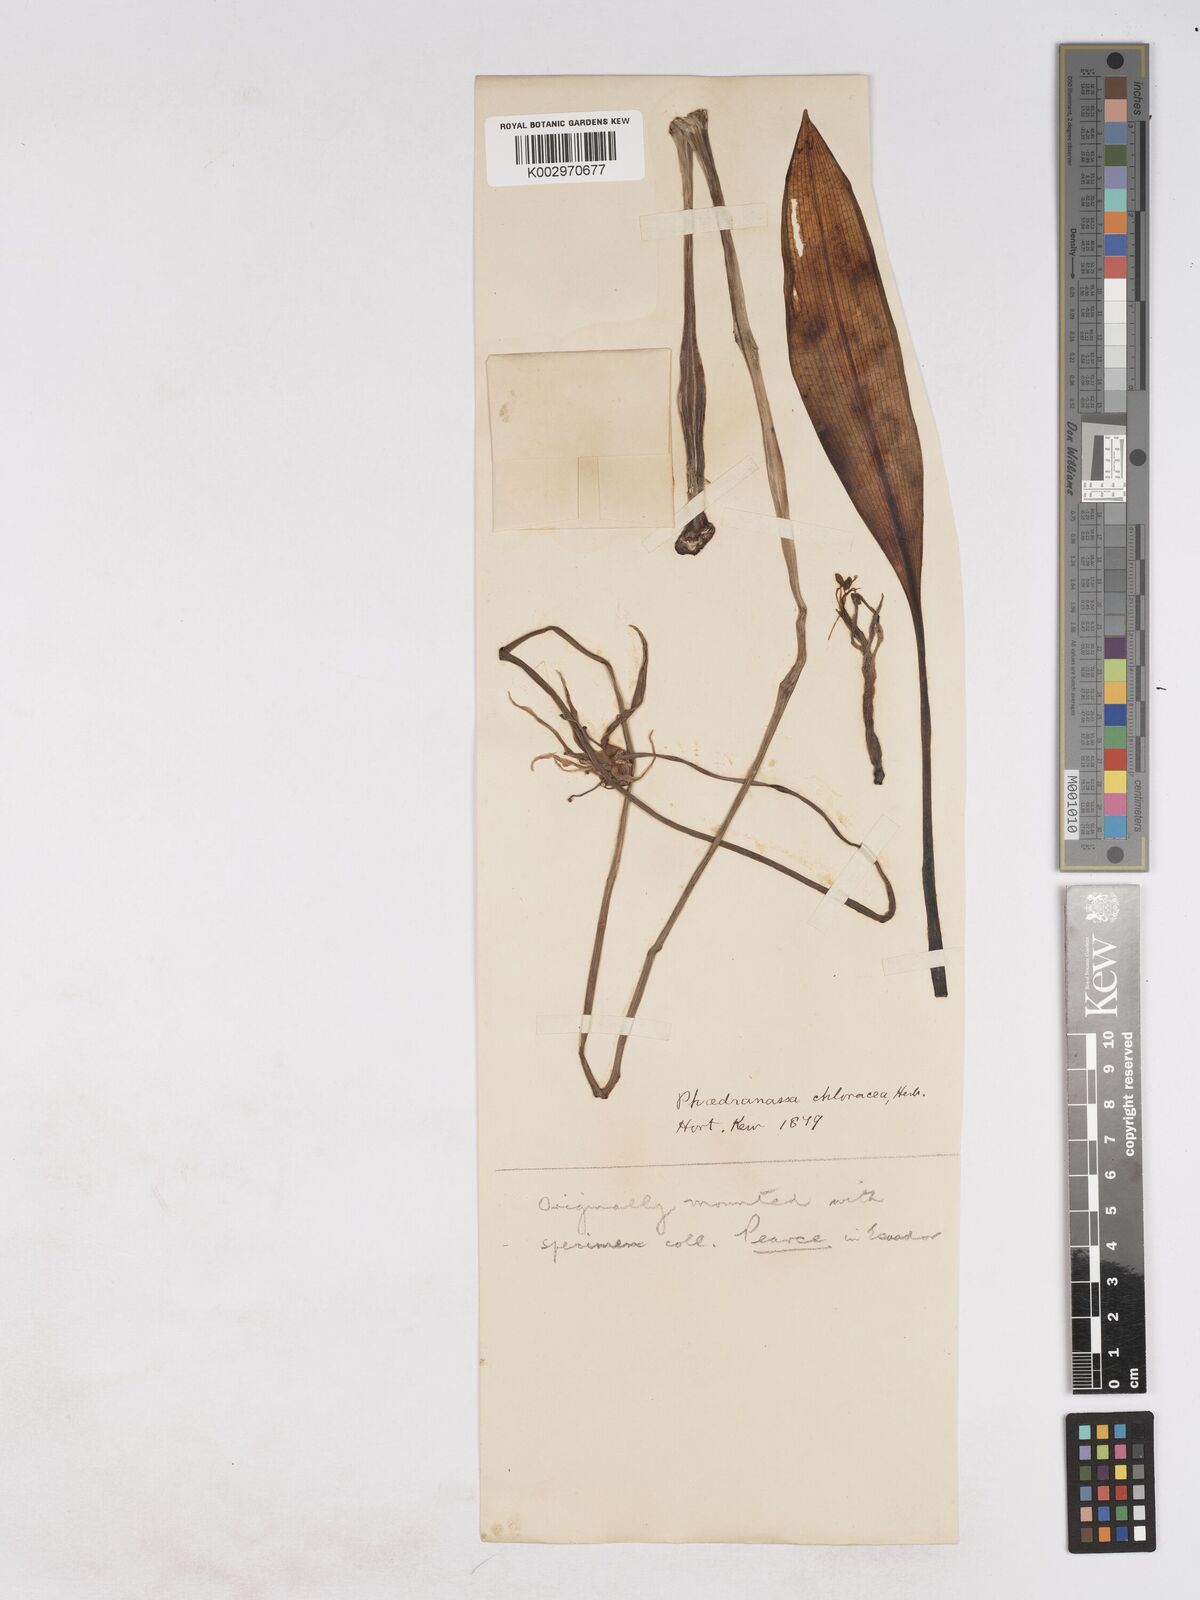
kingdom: Plantae
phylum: Tracheophyta
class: Liliopsida
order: Asparagales
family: Amaryllidaceae
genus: Phaedranassa
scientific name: Phaedranassa dubia
